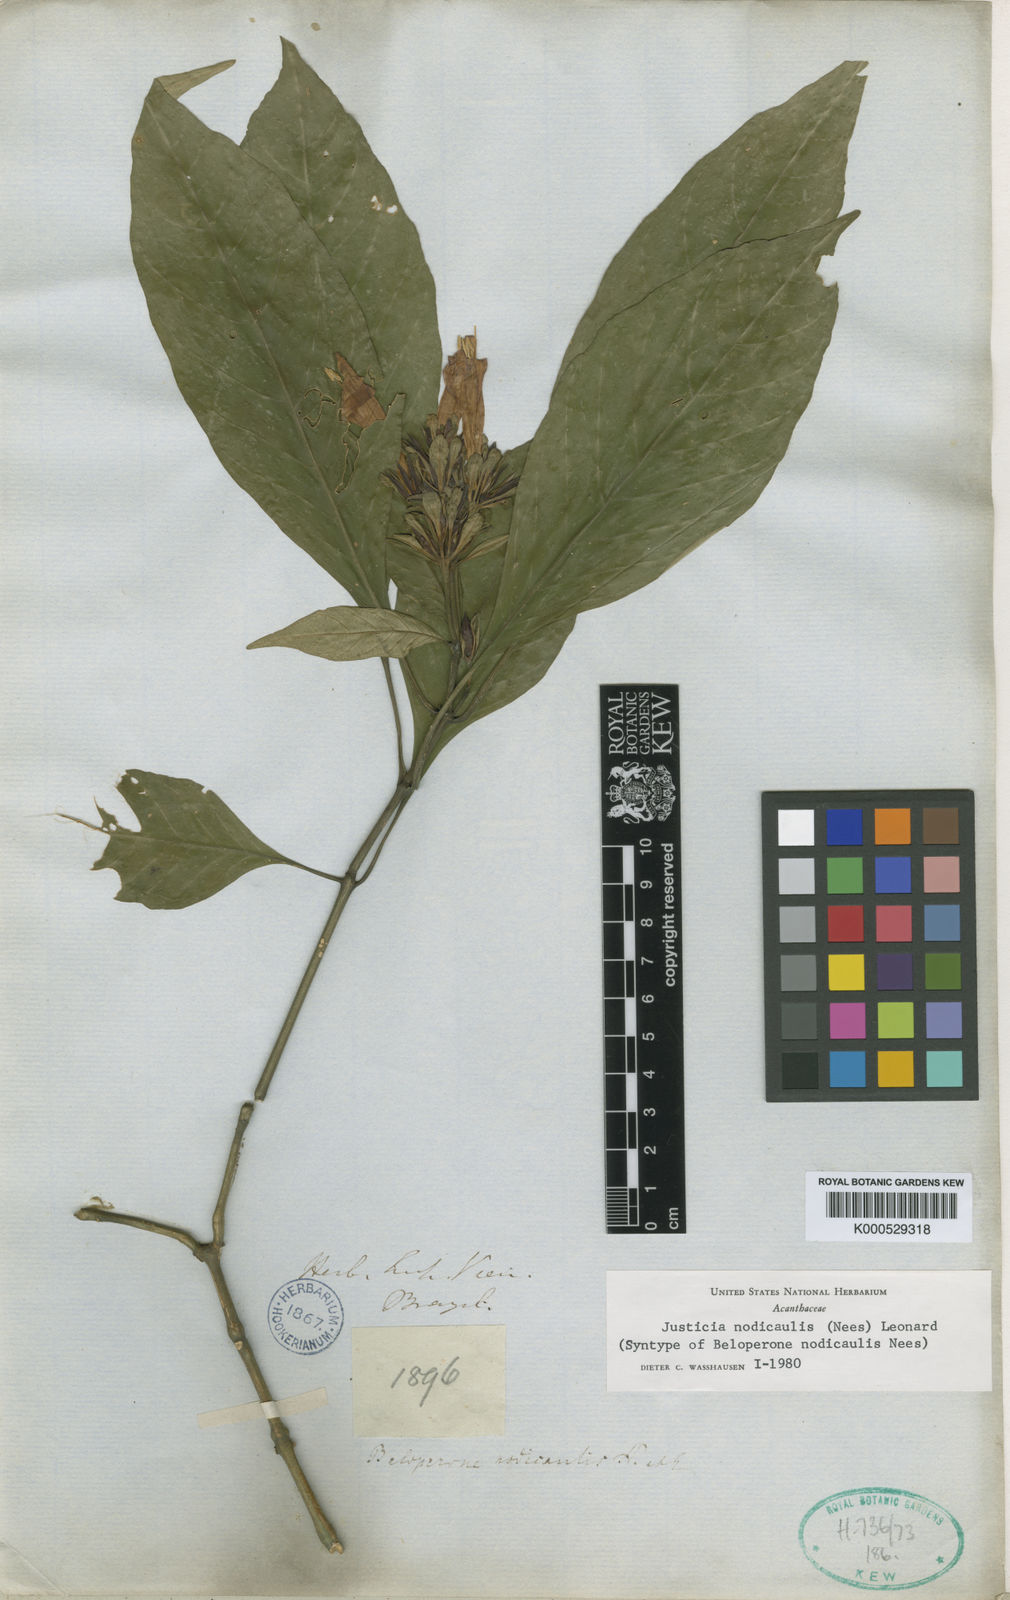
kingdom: Plantae
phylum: Tracheophyta
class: Magnoliopsida
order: Lamiales
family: Acanthaceae
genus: Justicia
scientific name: Justicia nodicaulis
